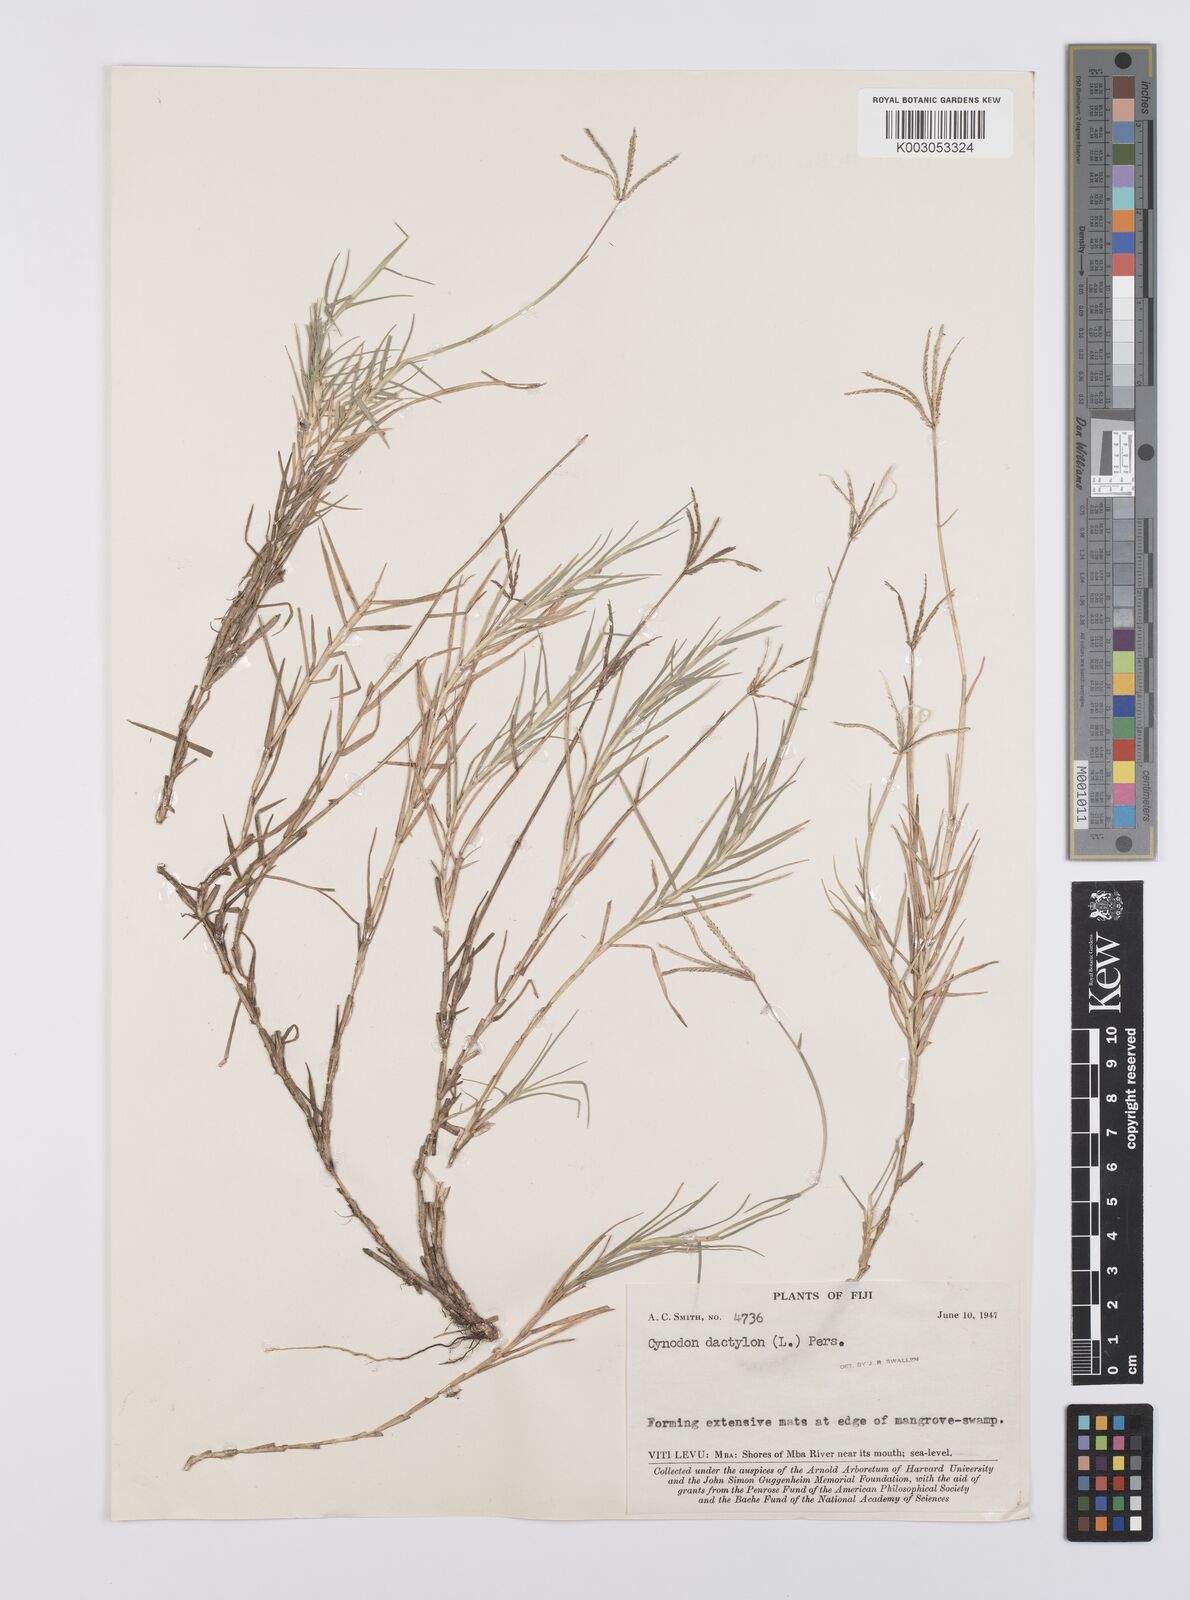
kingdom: Plantae
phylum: Tracheophyta
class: Liliopsida
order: Poales
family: Poaceae
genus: Cynodon
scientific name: Cynodon dactylon
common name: Bermuda grass
